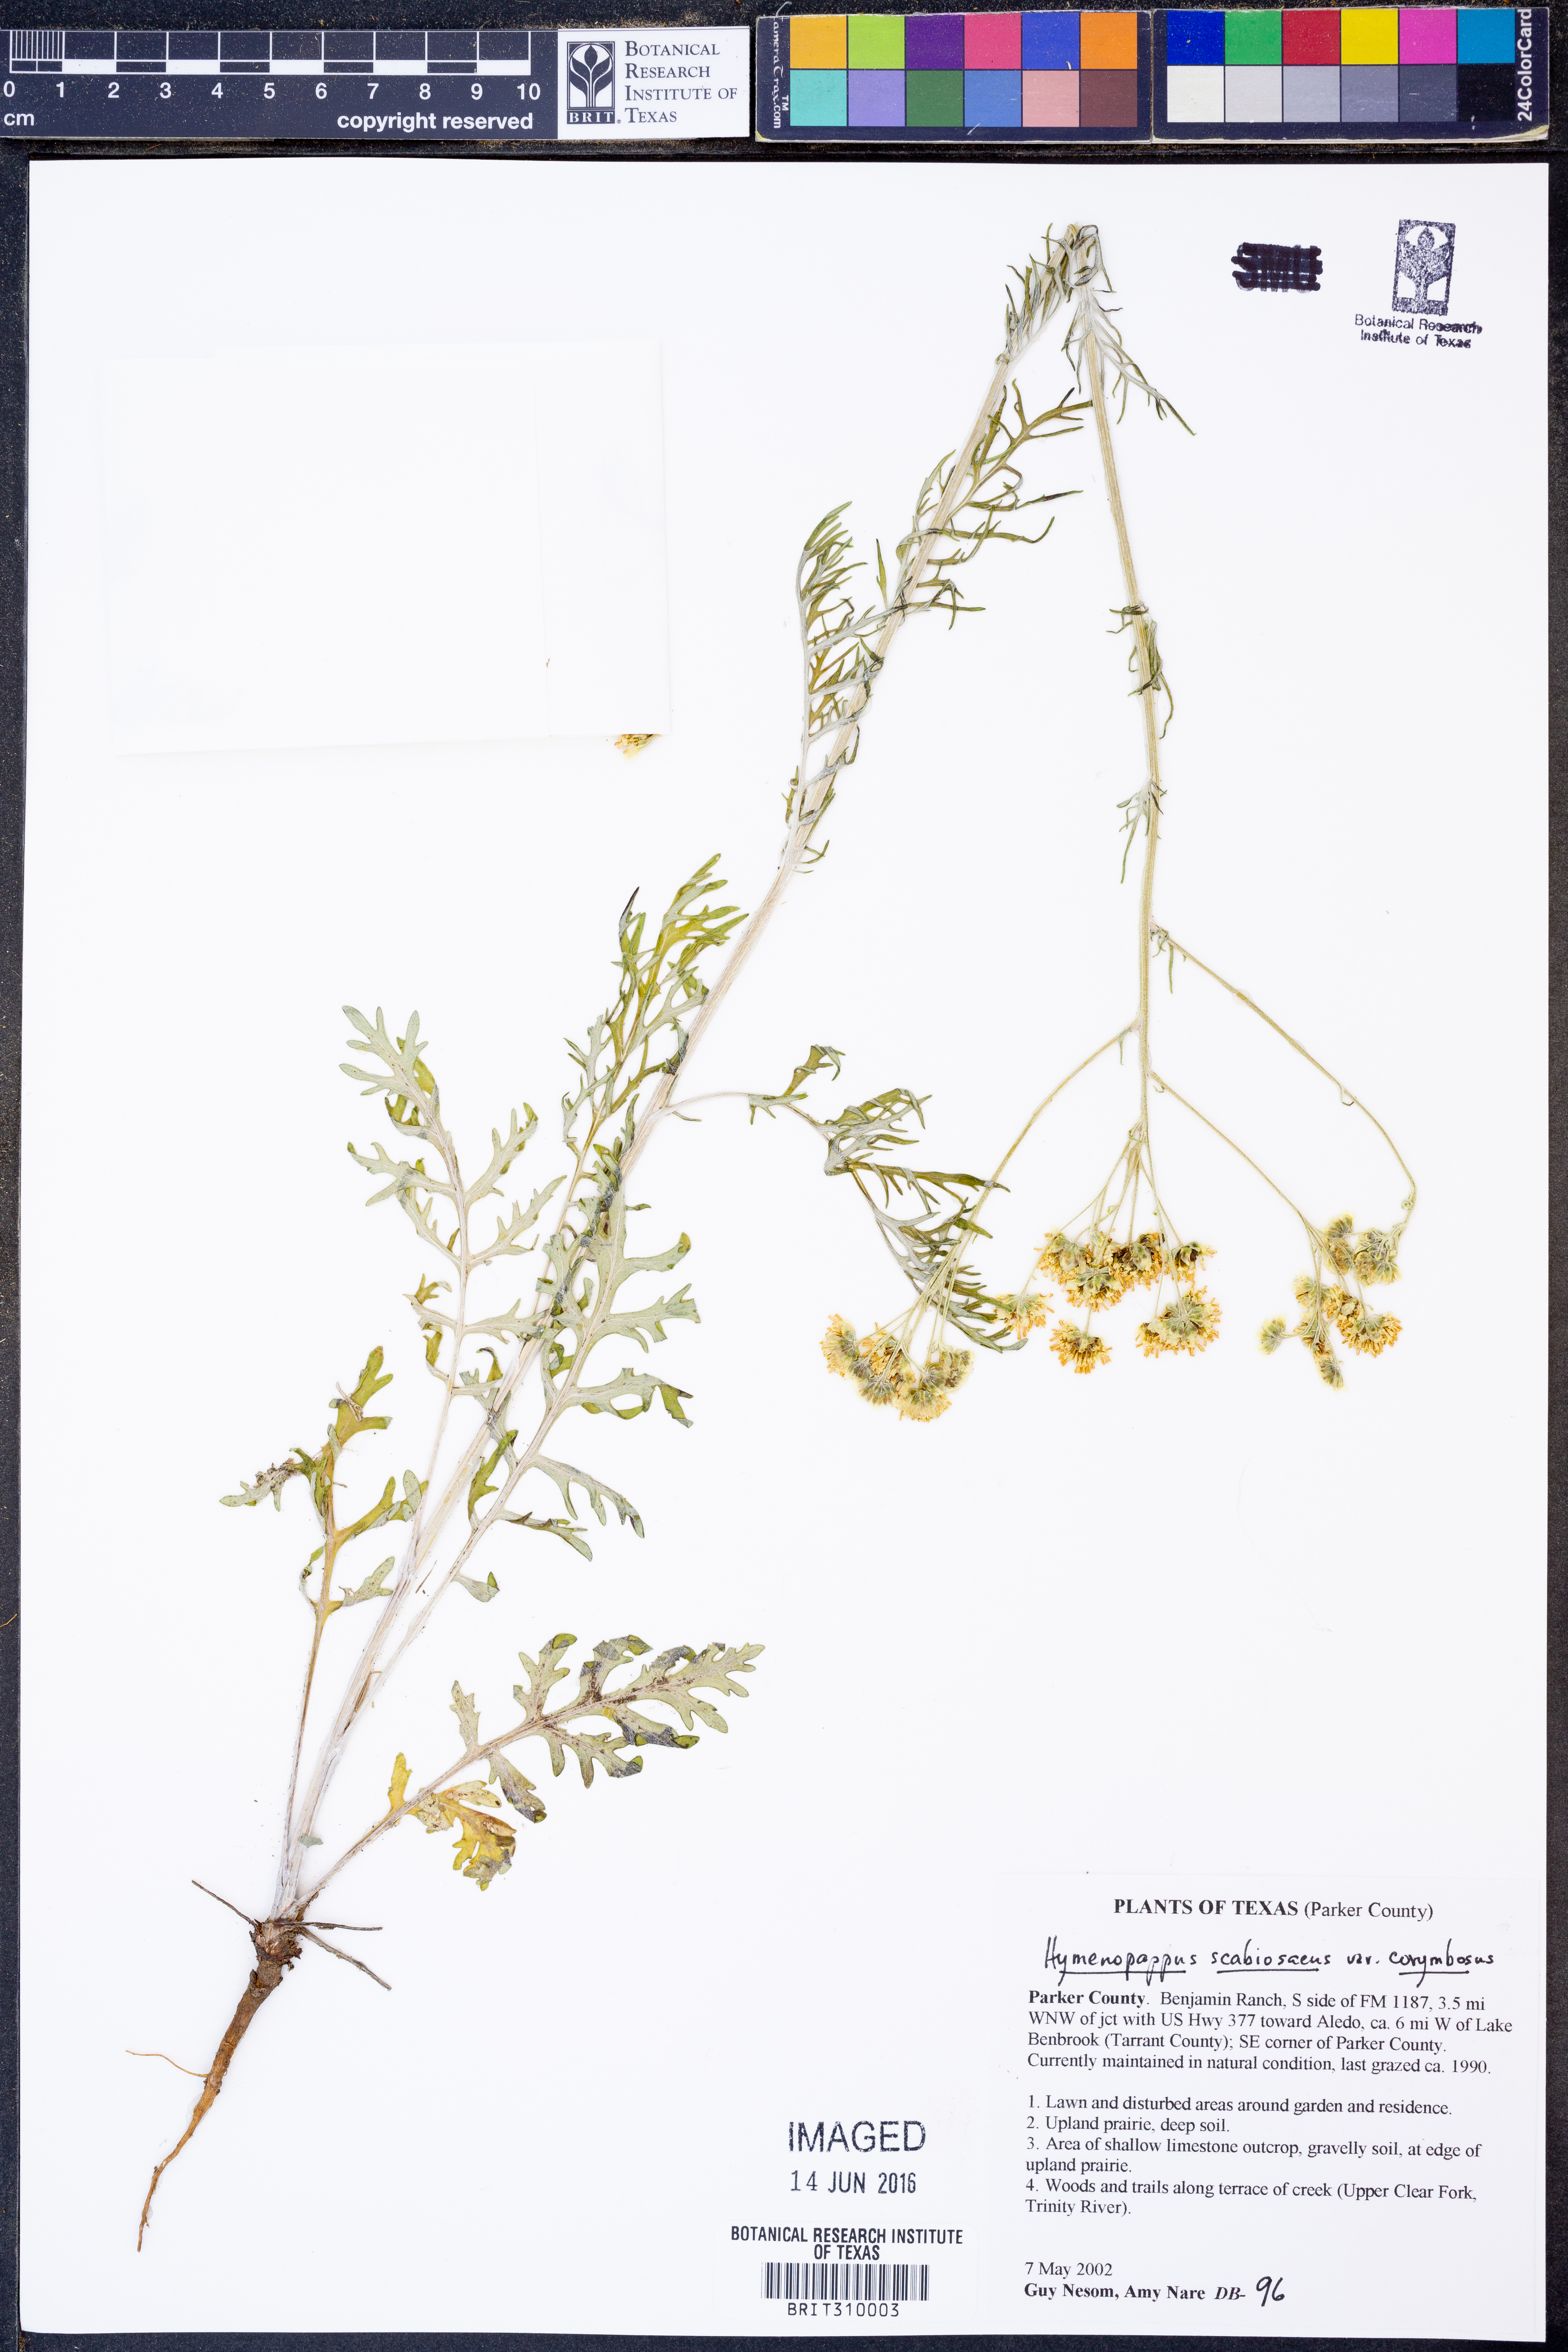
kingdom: Plantae
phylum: Tracheophyta
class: Magnoliopsida
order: Asterales
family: Asteraceae
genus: Hymenopappus
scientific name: Hymenopappus scabiosaeus
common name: Carolina woollywhite
